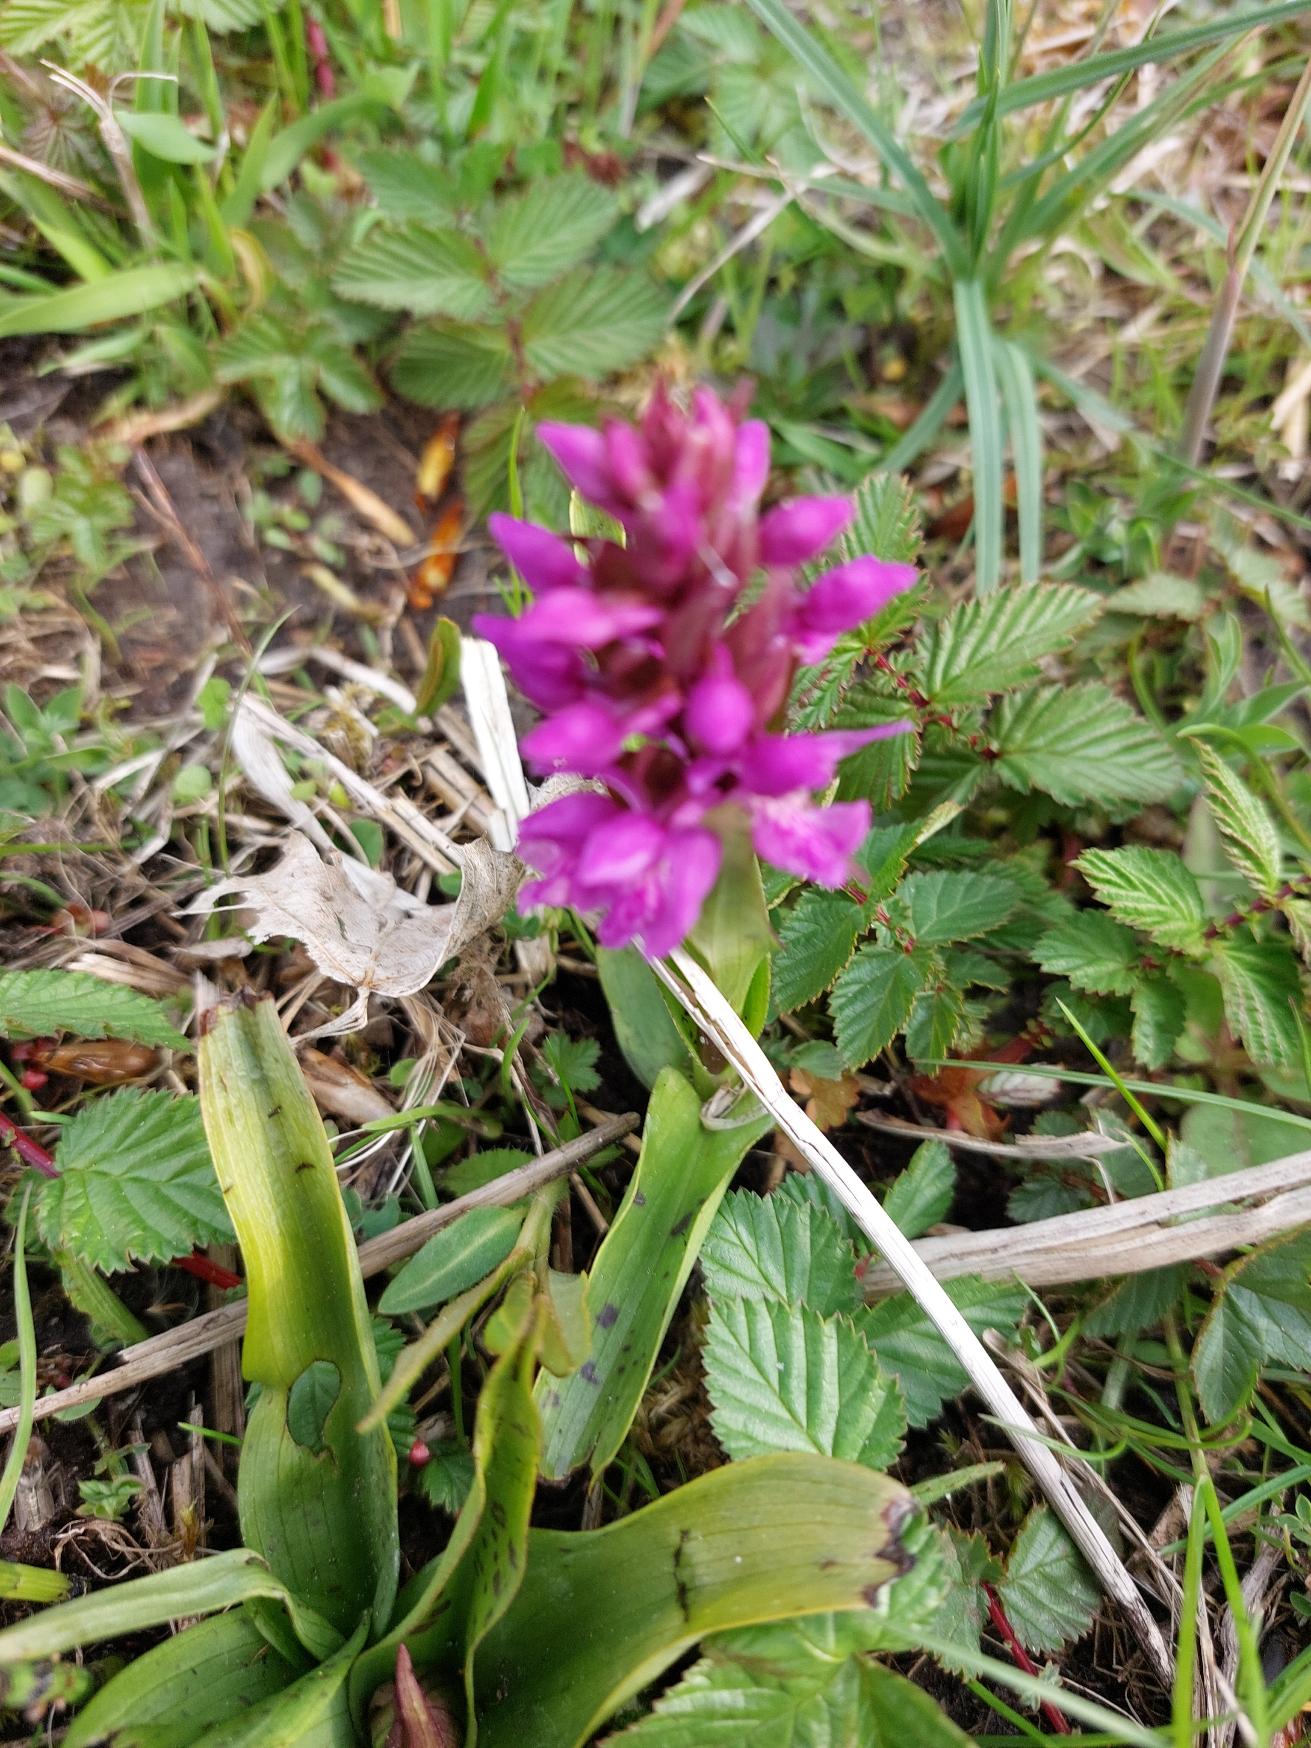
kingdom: Plantae
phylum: Tracheophyta
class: Liliopsida
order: Asparagales
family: Orchidaceae
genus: Dactylorhiza
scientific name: Dactylorhiza majalis
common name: Maj-gøgeurt
